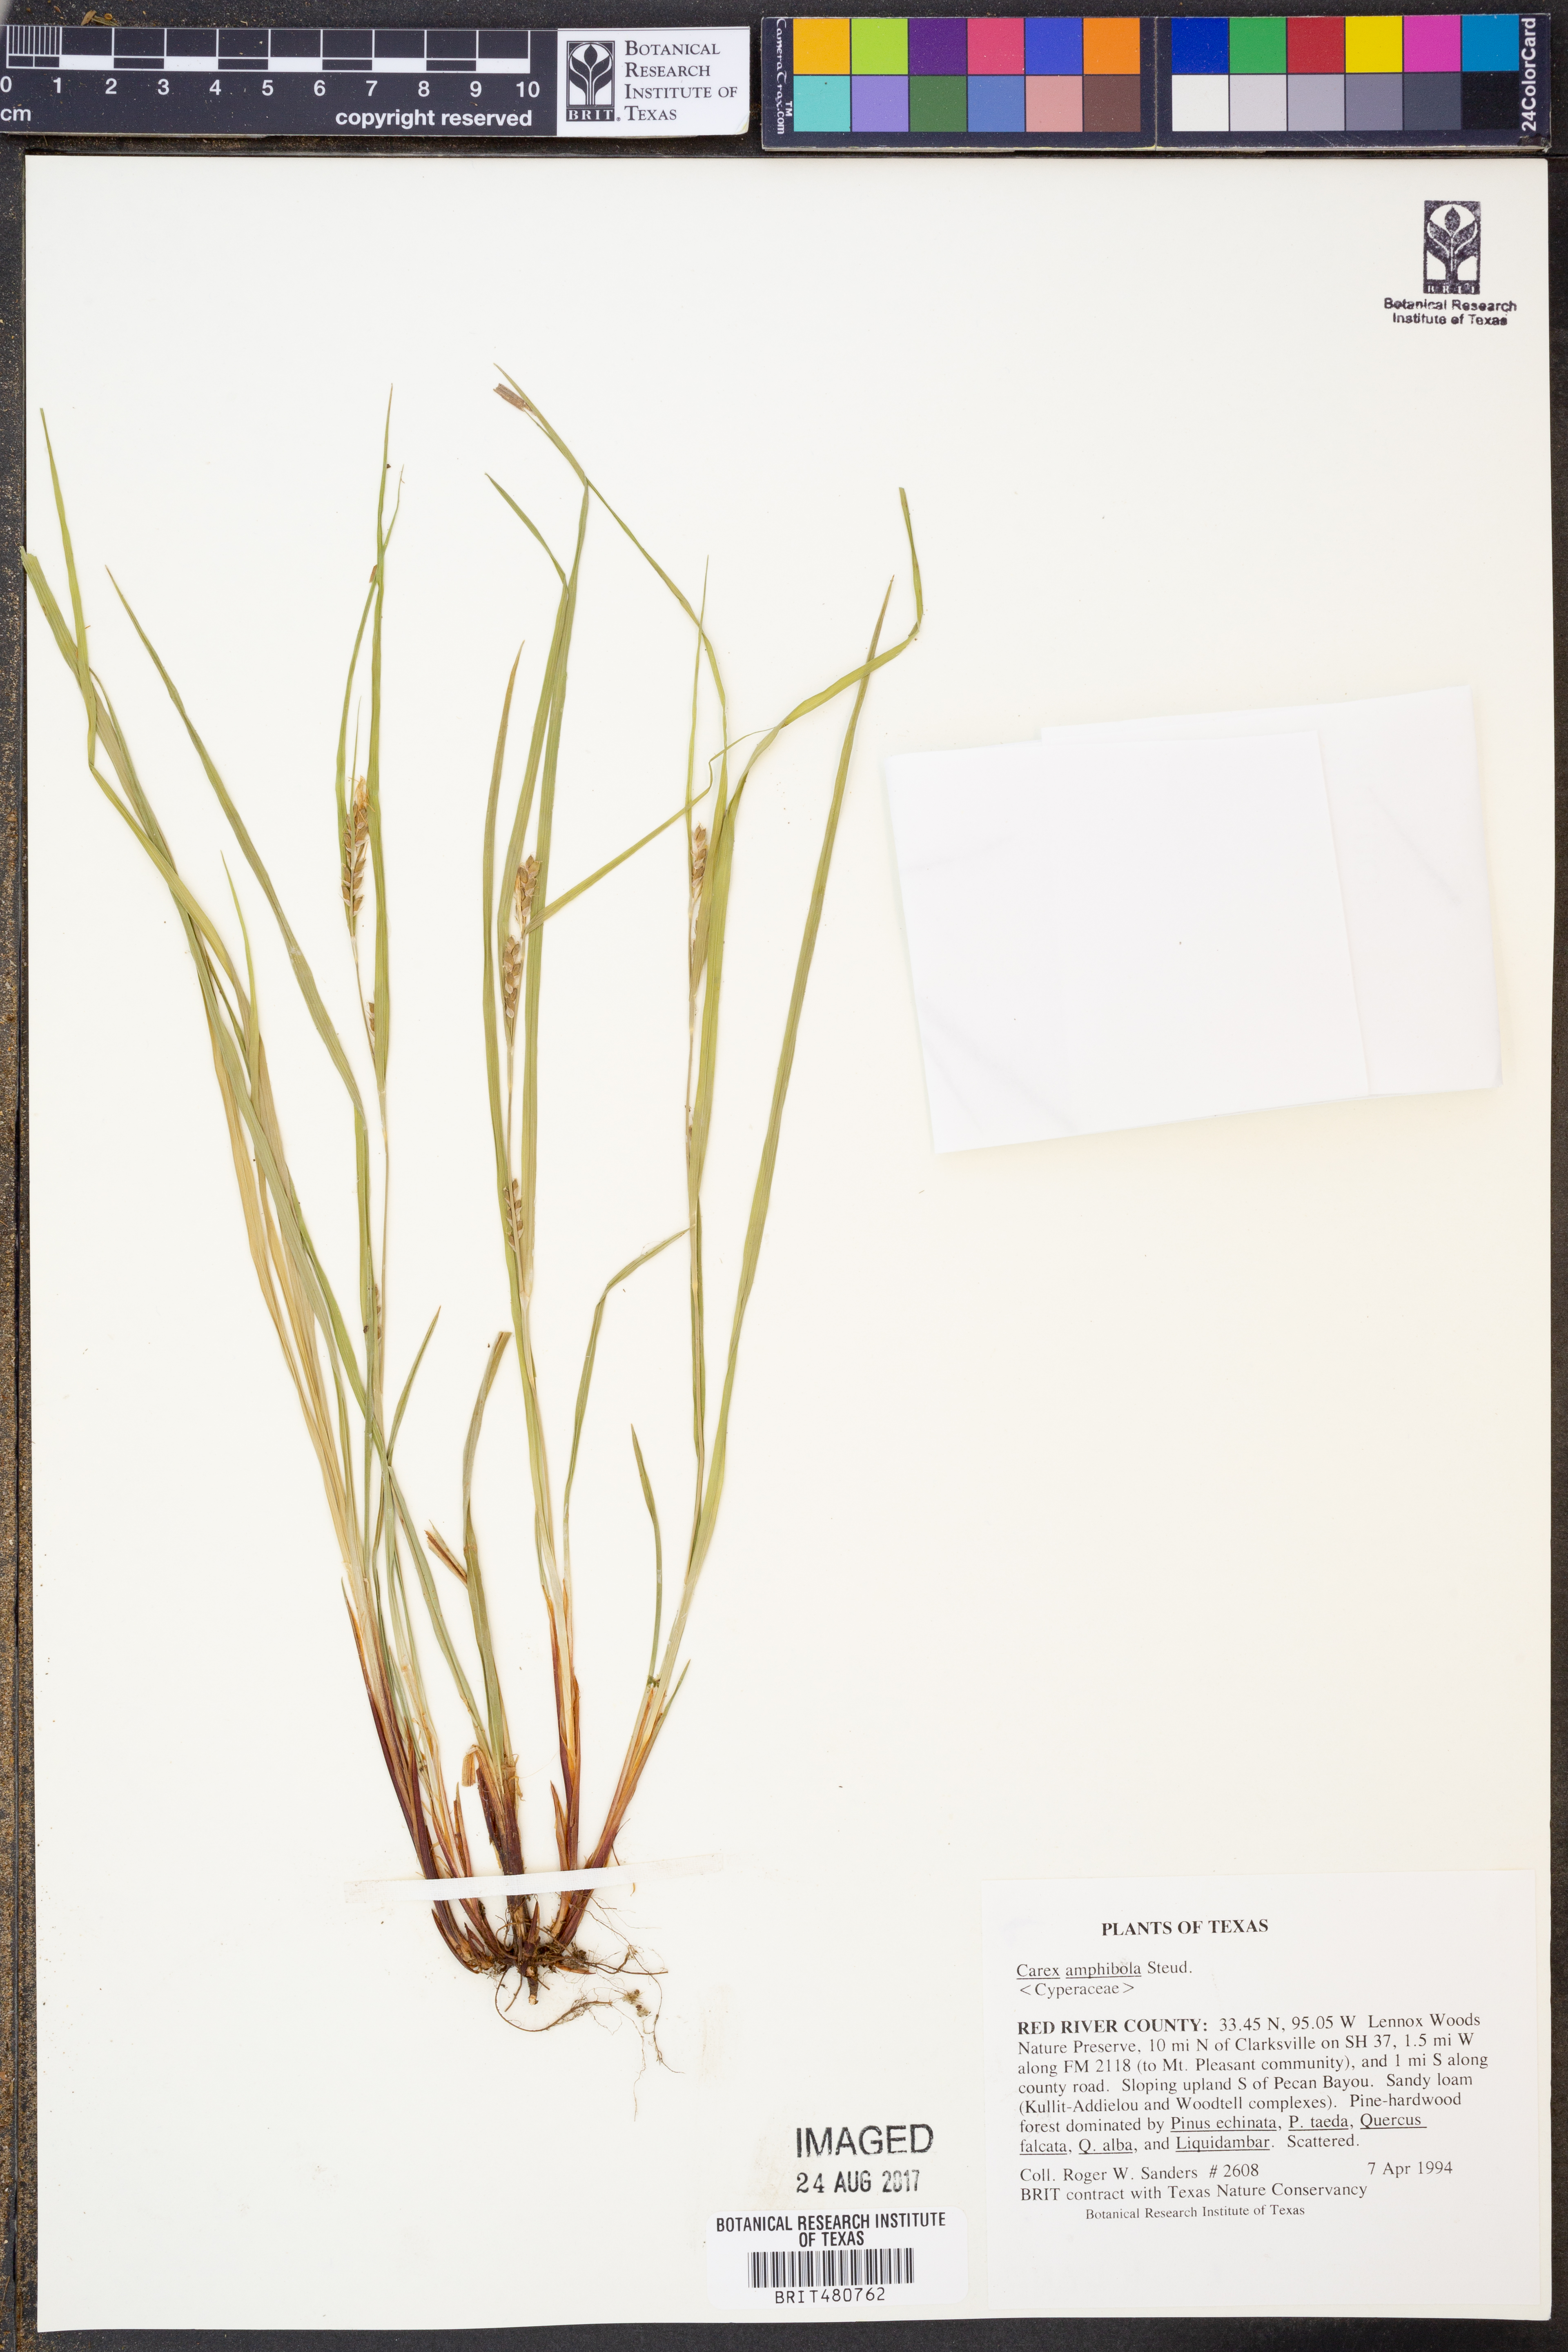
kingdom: Plantae
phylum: Tracheophyta
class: Liliopsida
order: Poales
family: Cyperaceae
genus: Carex
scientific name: Carex amphibola
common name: Amphibious sedge
